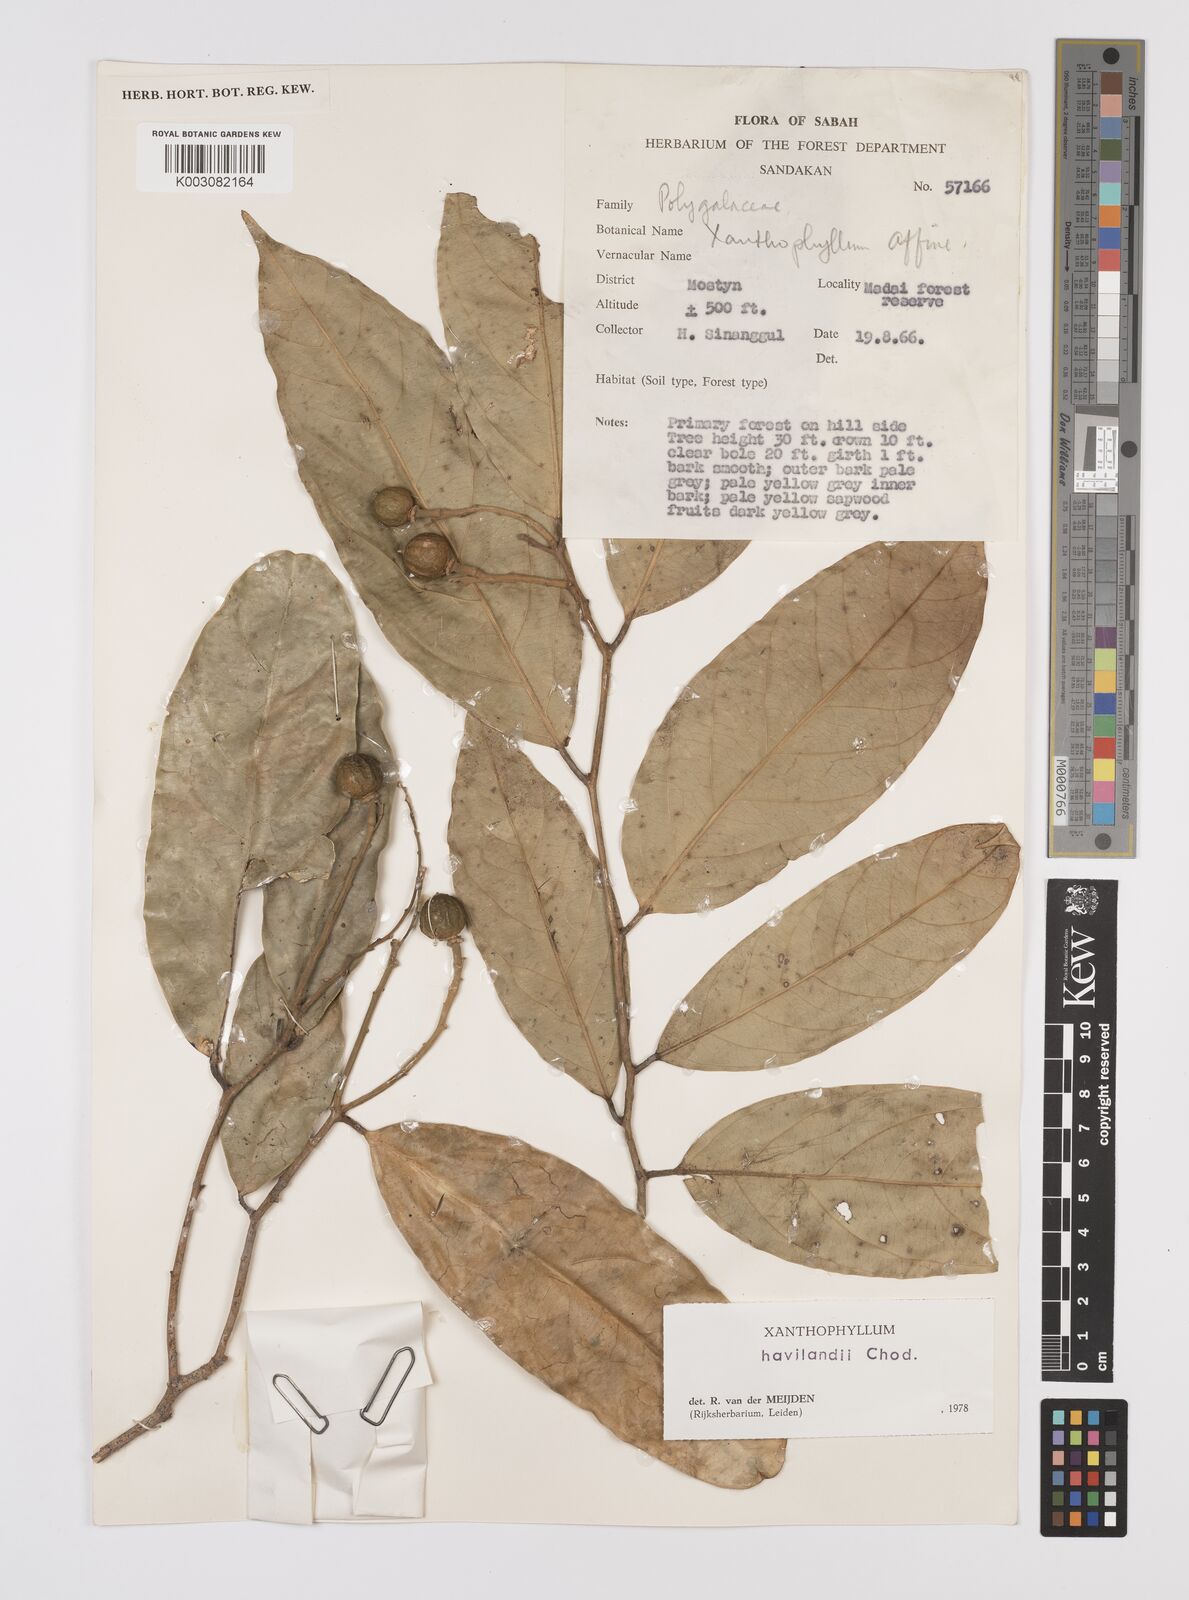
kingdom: Plantae
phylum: Tracheophyta
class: Magnoliopsida
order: Fabales
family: Polygalaceae
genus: Xanthophyllum
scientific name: Xanthophyllum flavescens
